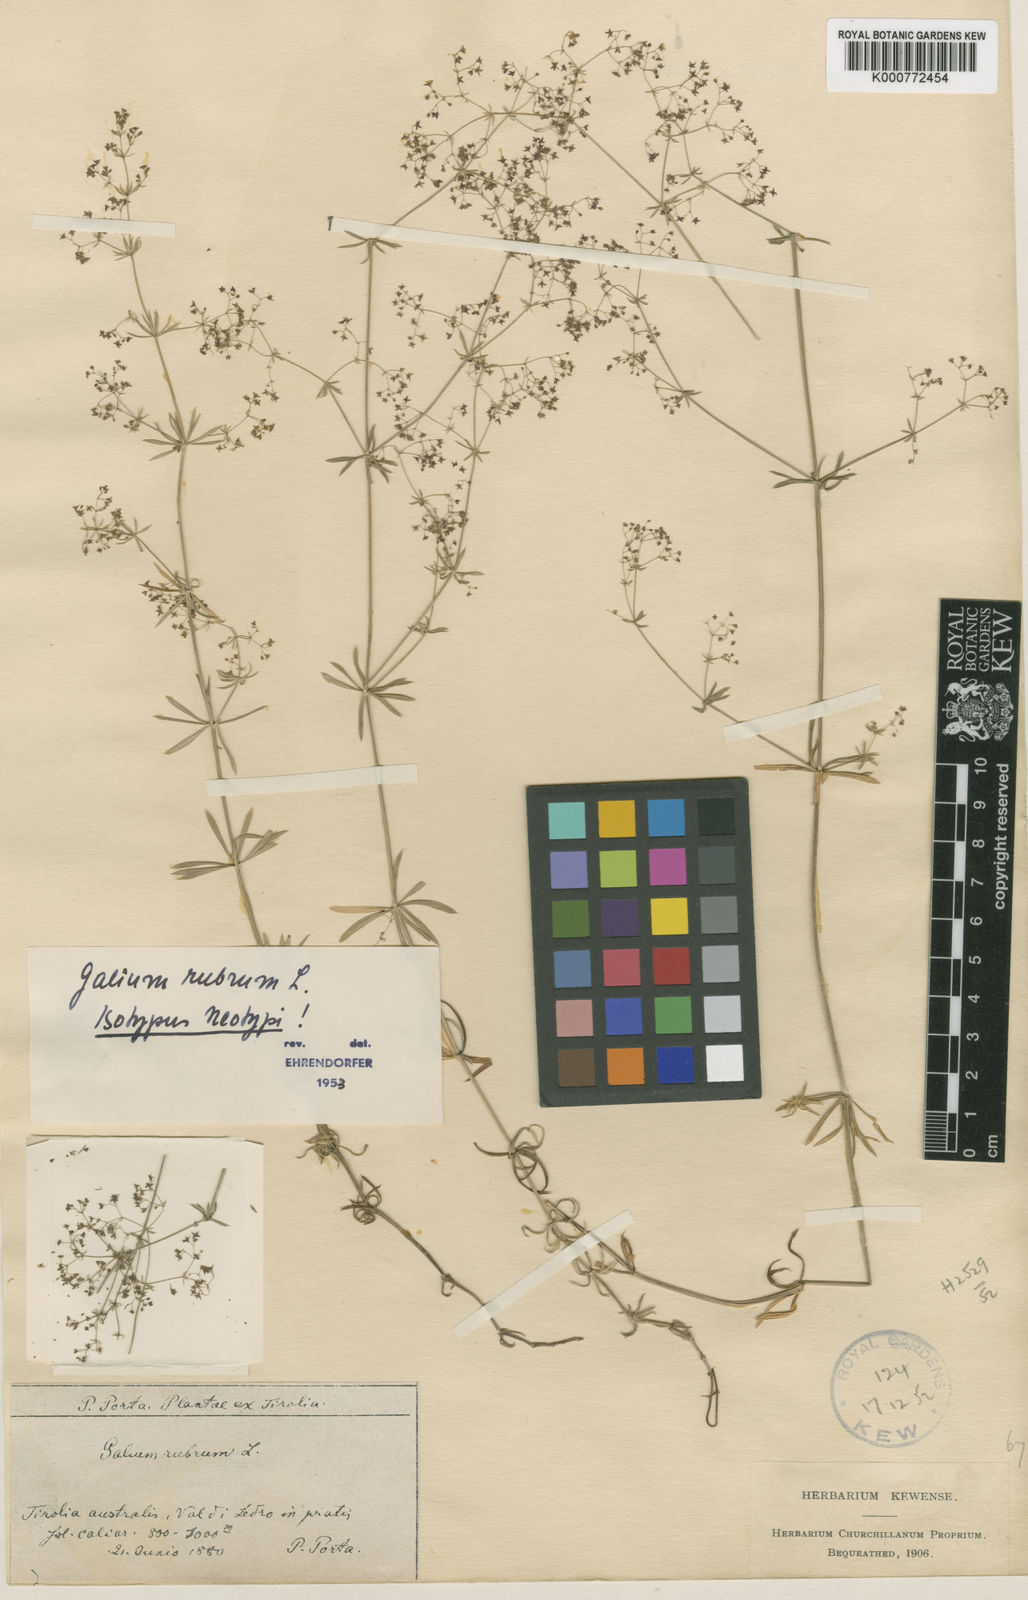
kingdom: Plantae
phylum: Tracheophyta
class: Magnoliopsida
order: Gentianales
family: Rubiaceae
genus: Galium
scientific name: Galium rubrum
